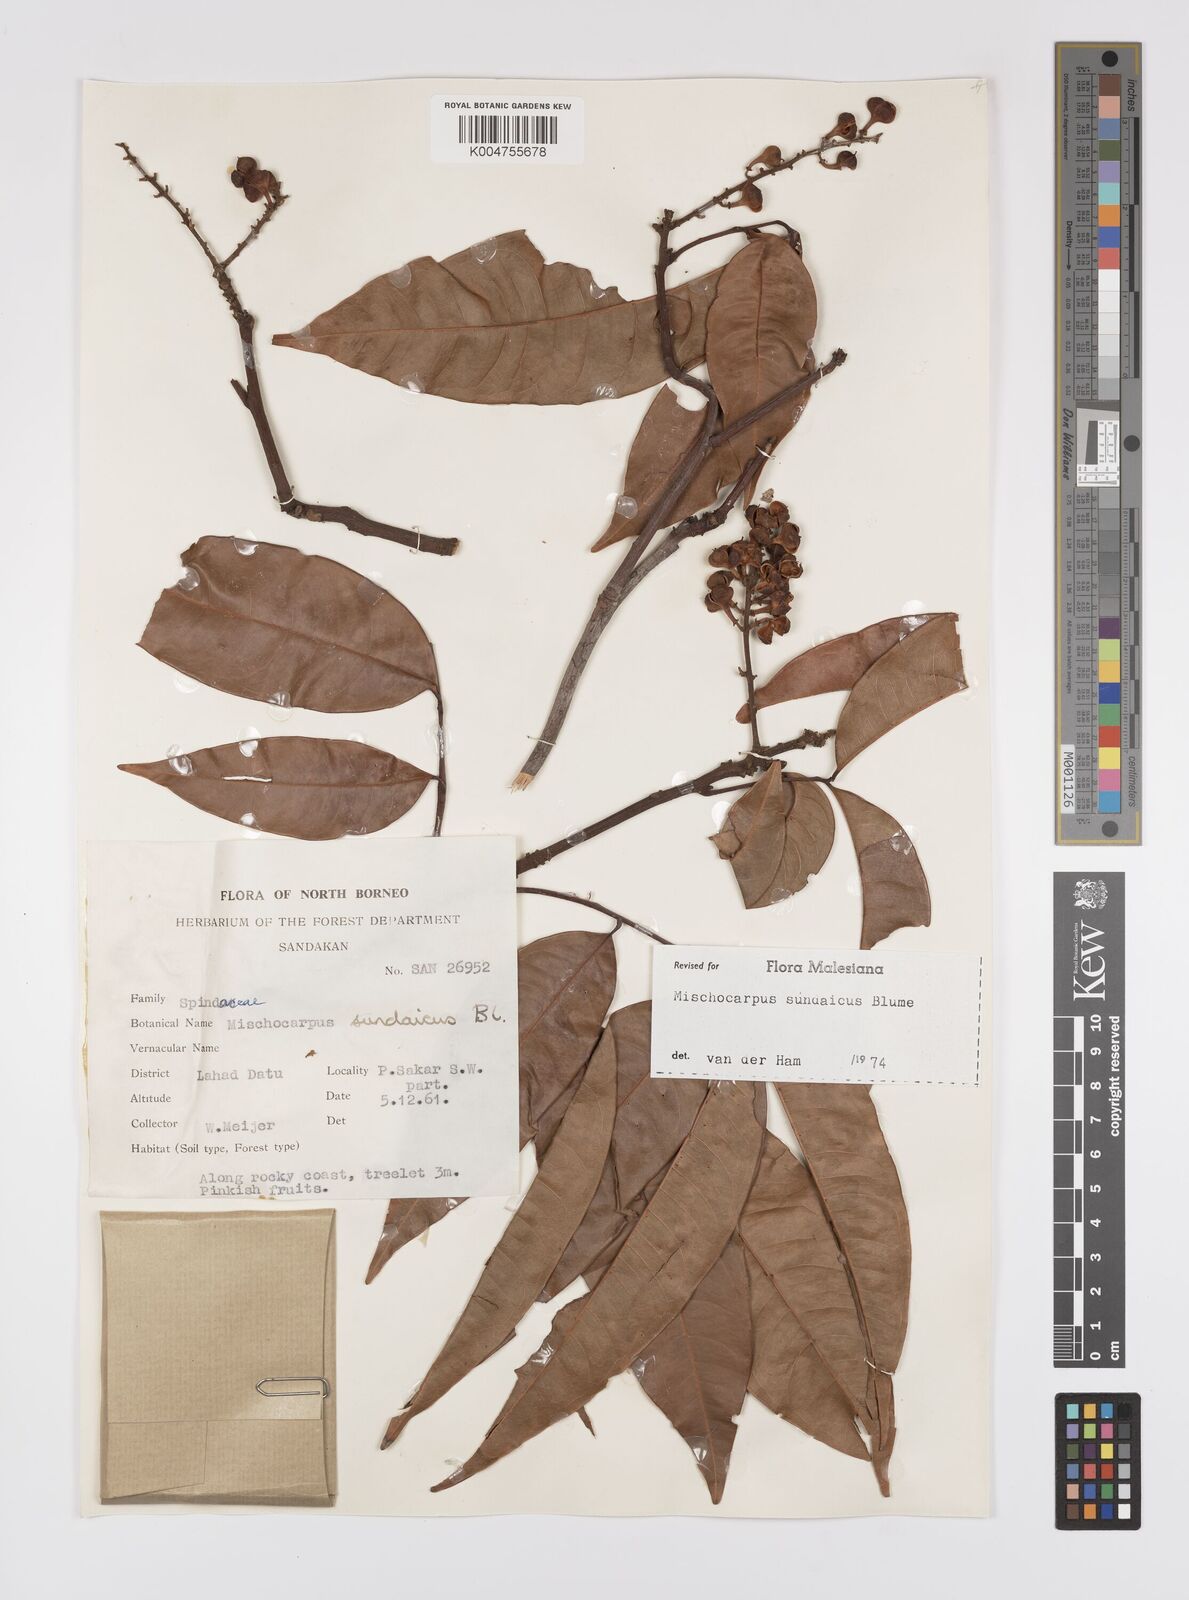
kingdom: Plantae
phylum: Tracheophyta
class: Magnoliopsida
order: Sapindales
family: Sapindaceae
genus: Mischocarpus
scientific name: Mischocarpus sundaicus
